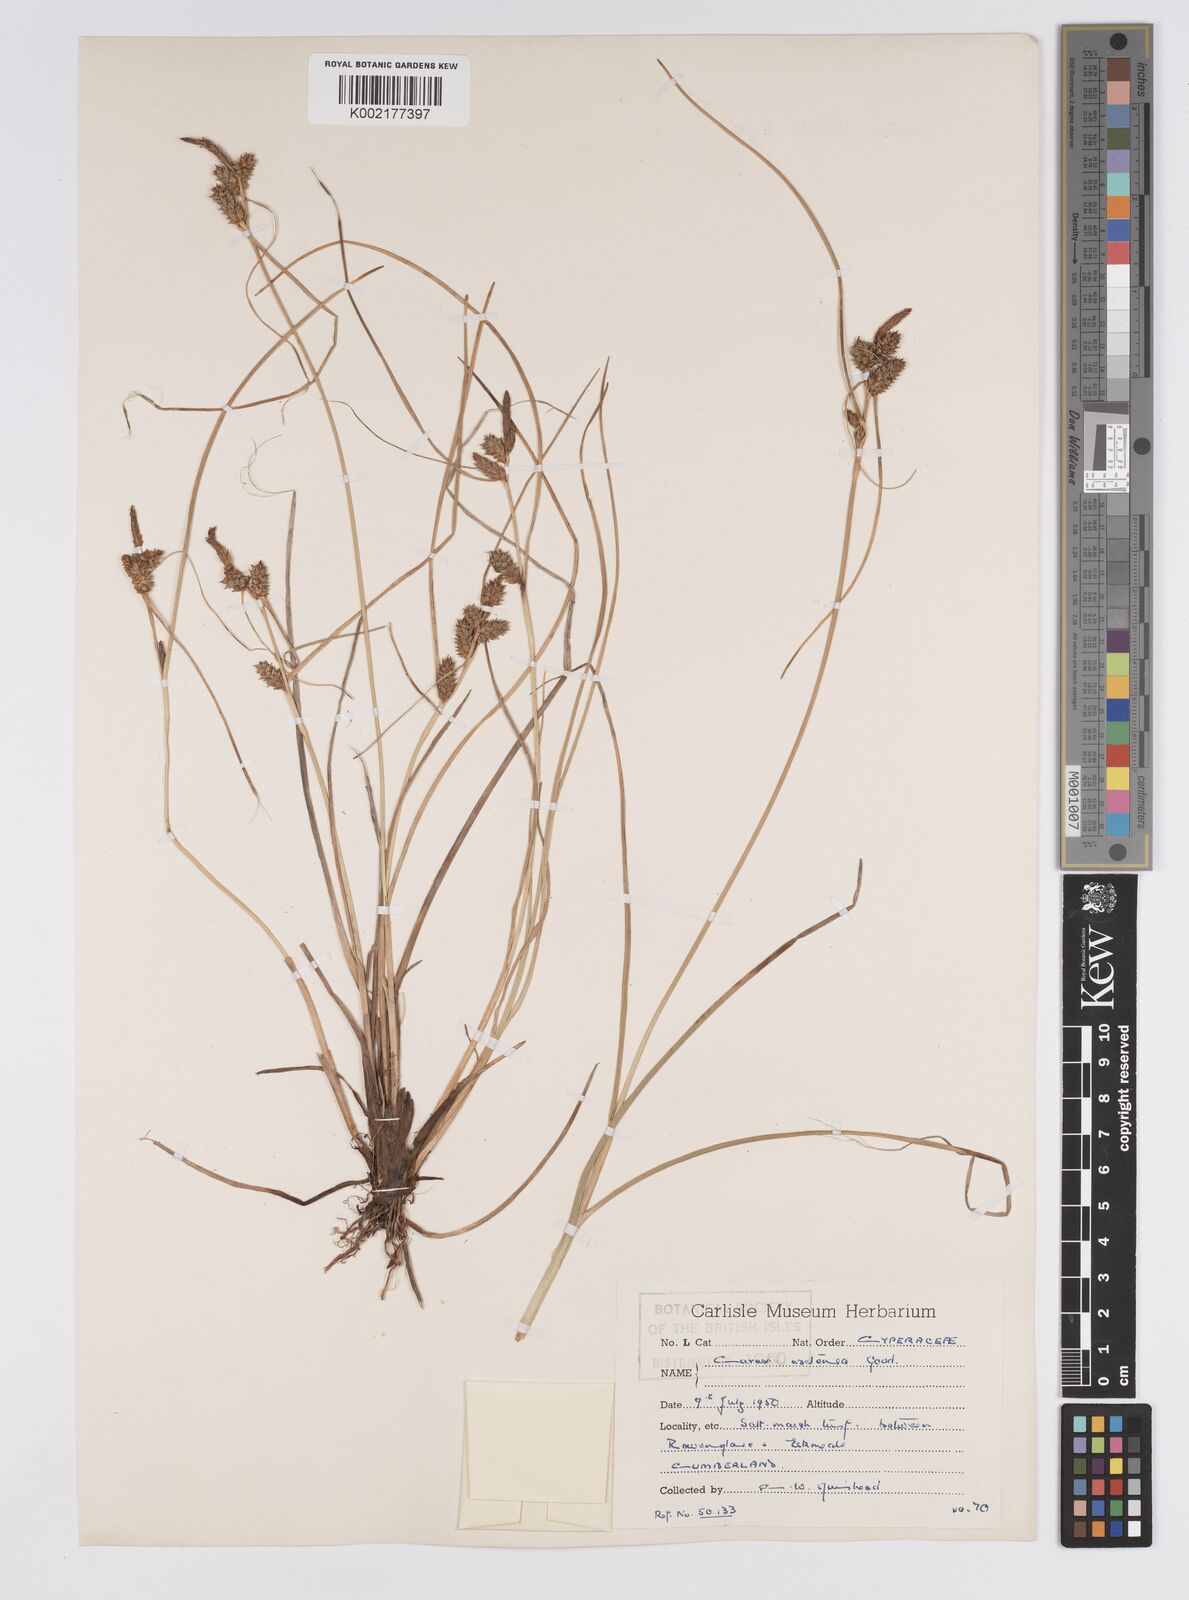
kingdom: Plantae
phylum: Tracheophyta
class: Liliopsida
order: Poales
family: Cyperaceae
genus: Carex
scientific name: Carex extensa
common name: Long-bracted sedge
